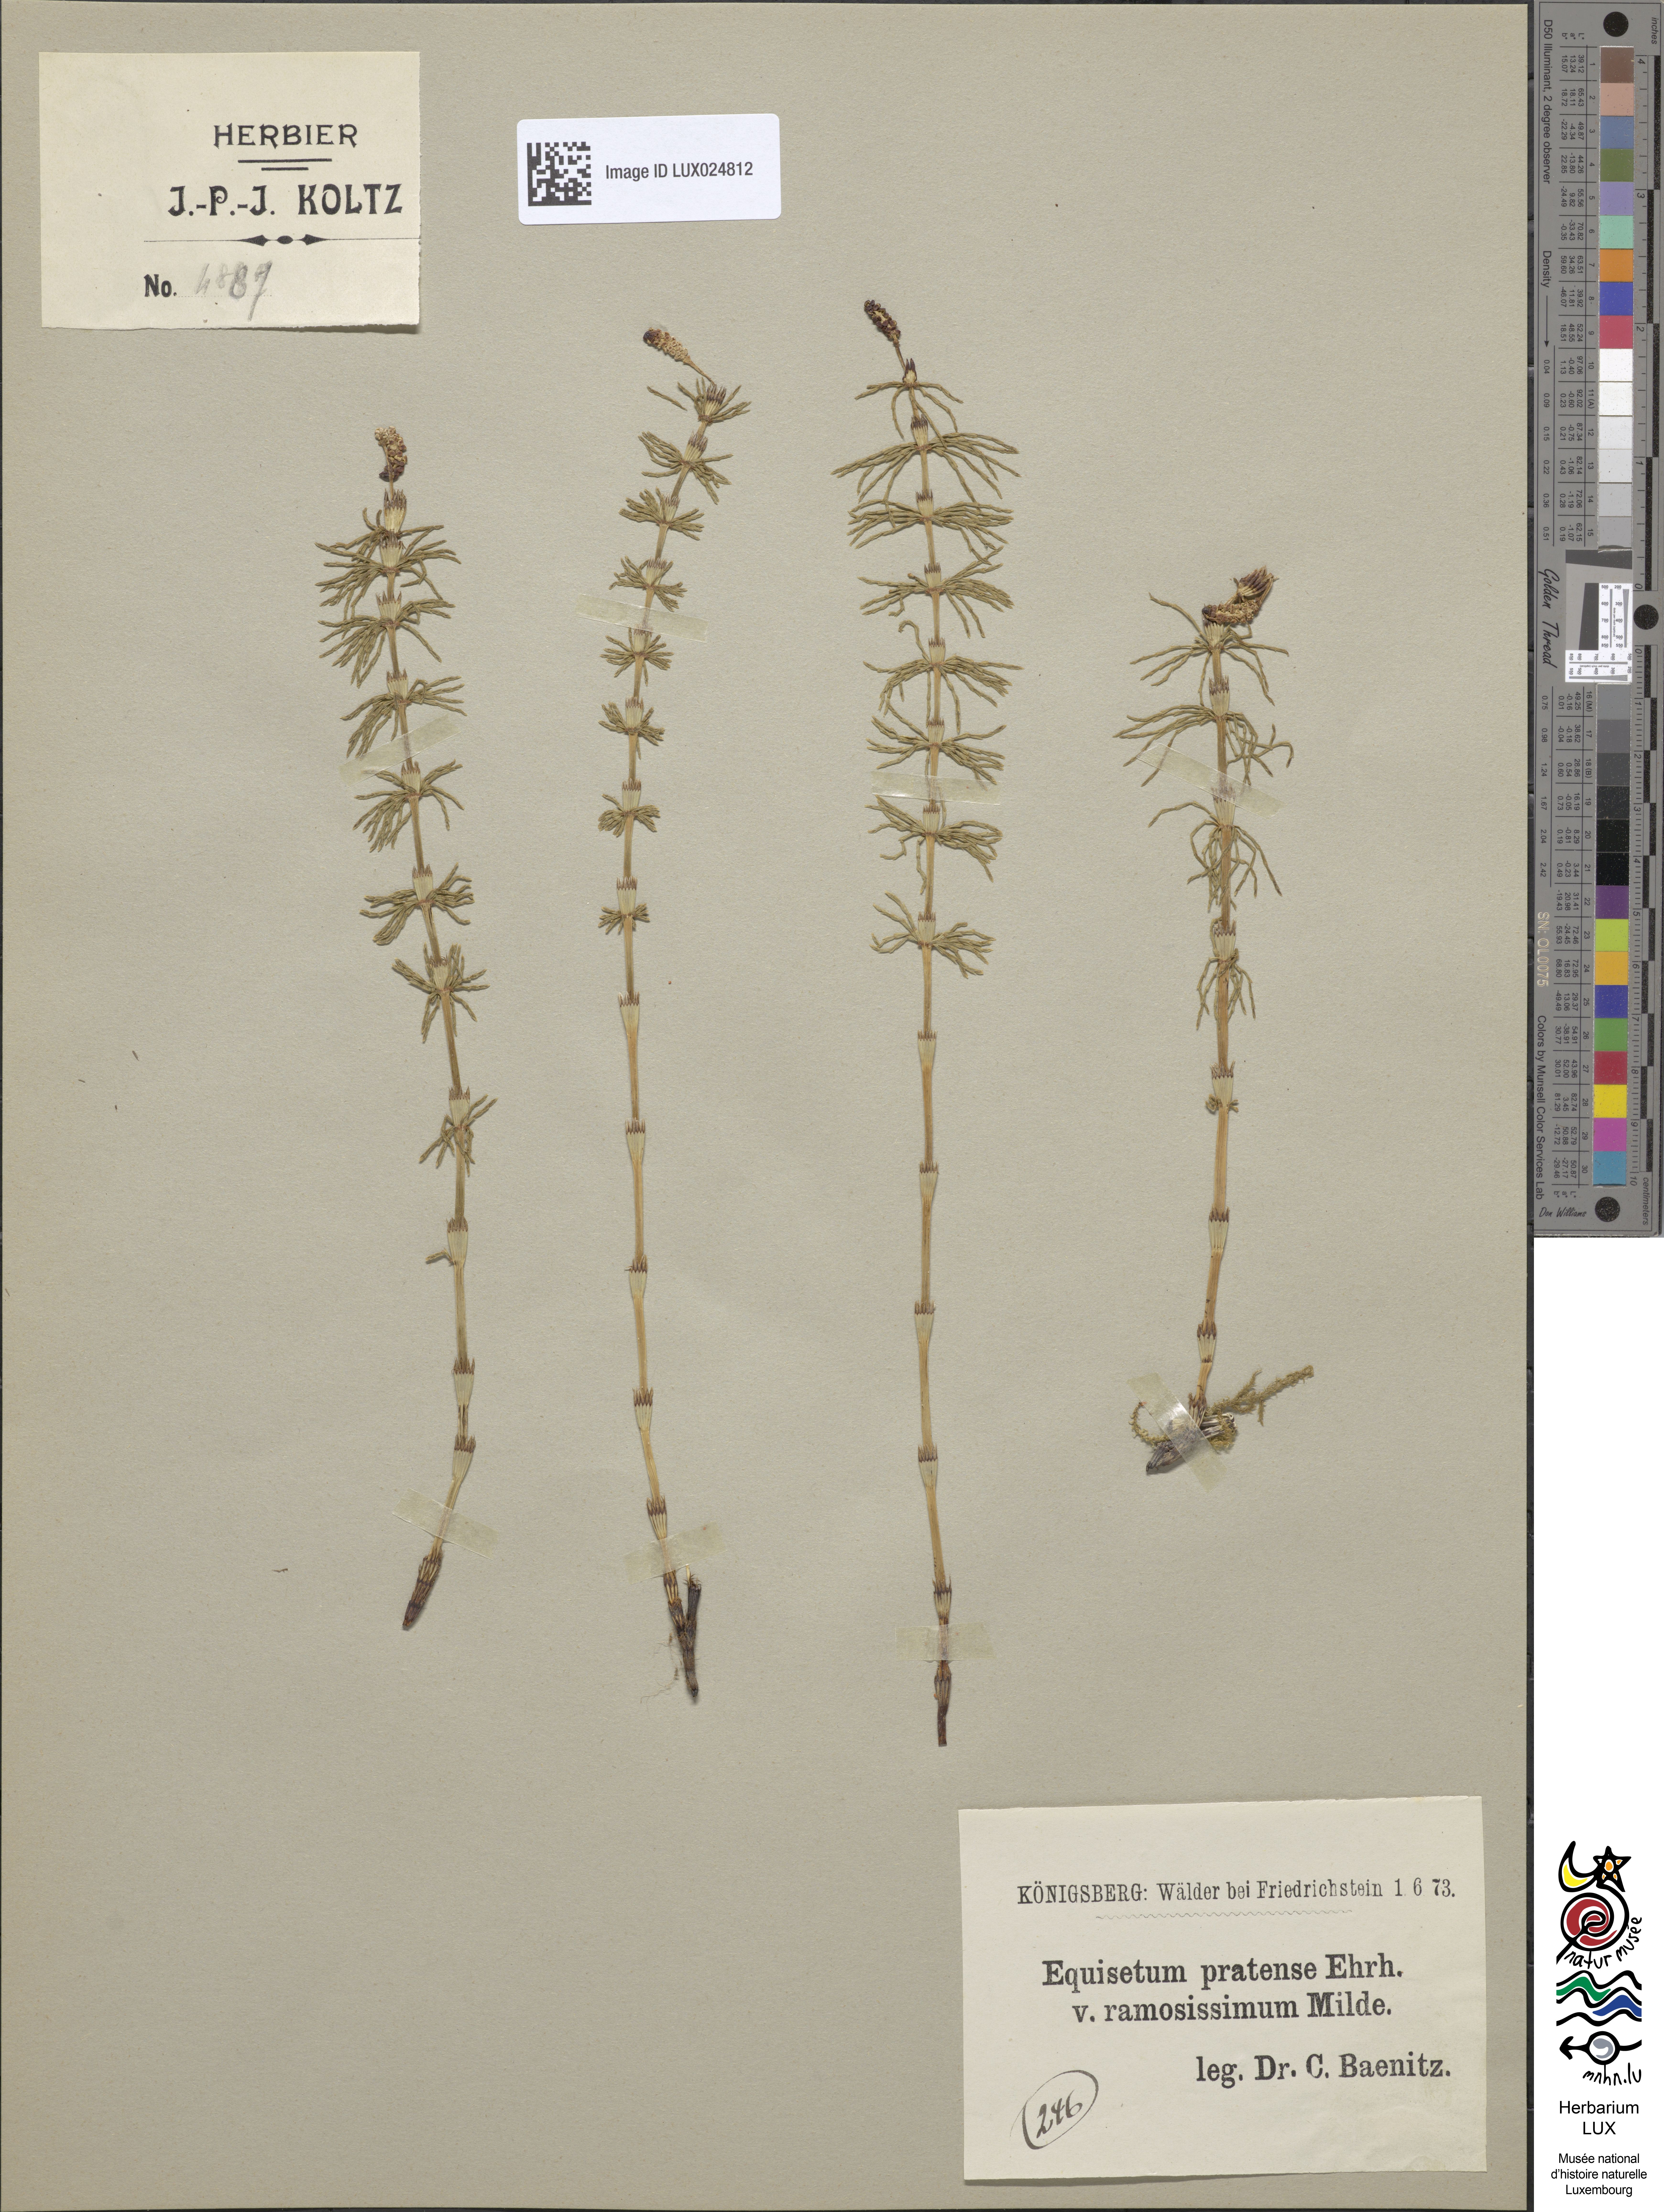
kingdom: Plantae
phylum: Tracheophyta
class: Polypodiopsida
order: Equisetales
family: Equisetaceae
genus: Equisetum
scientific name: Equisetum pratense
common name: Meadow horsetail
